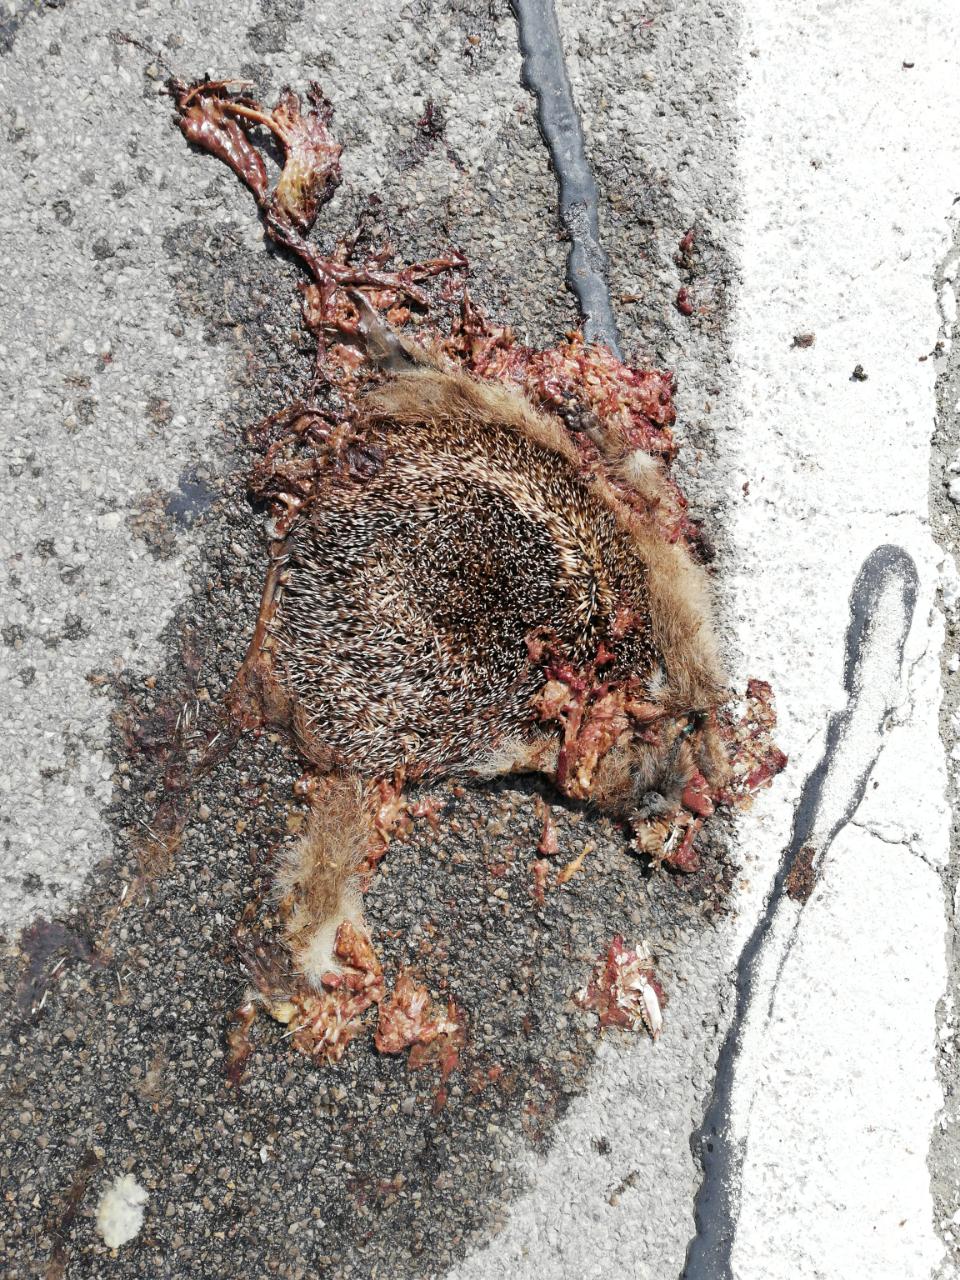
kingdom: Animalia
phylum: Chordata
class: Mammalia
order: Erinaceomorpha
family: Erinaceidae
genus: Erinaceus
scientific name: Erinaceus
